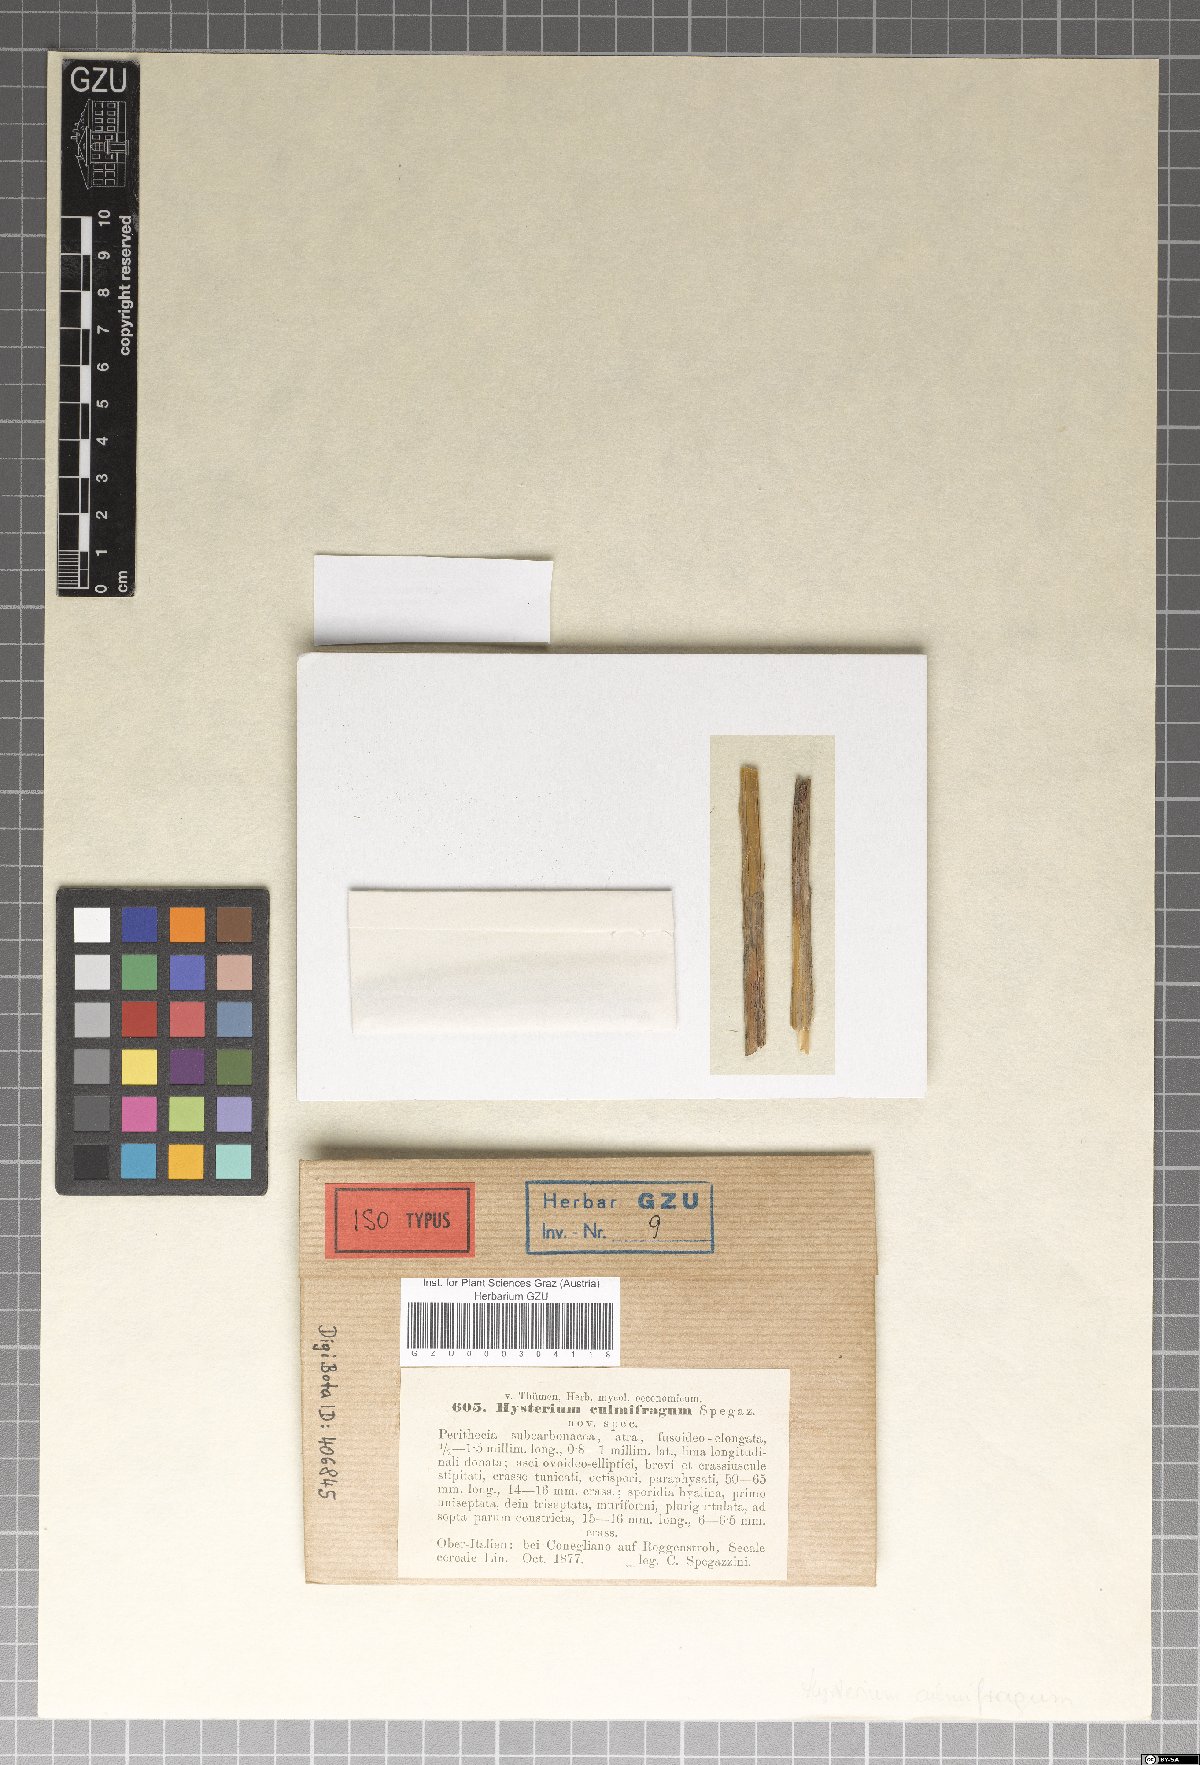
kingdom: Fungi
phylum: Ascomycota
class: Dothideomycetes
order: Hysteriales
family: Hysteriaceae
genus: Hysterium
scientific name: Hysterium
